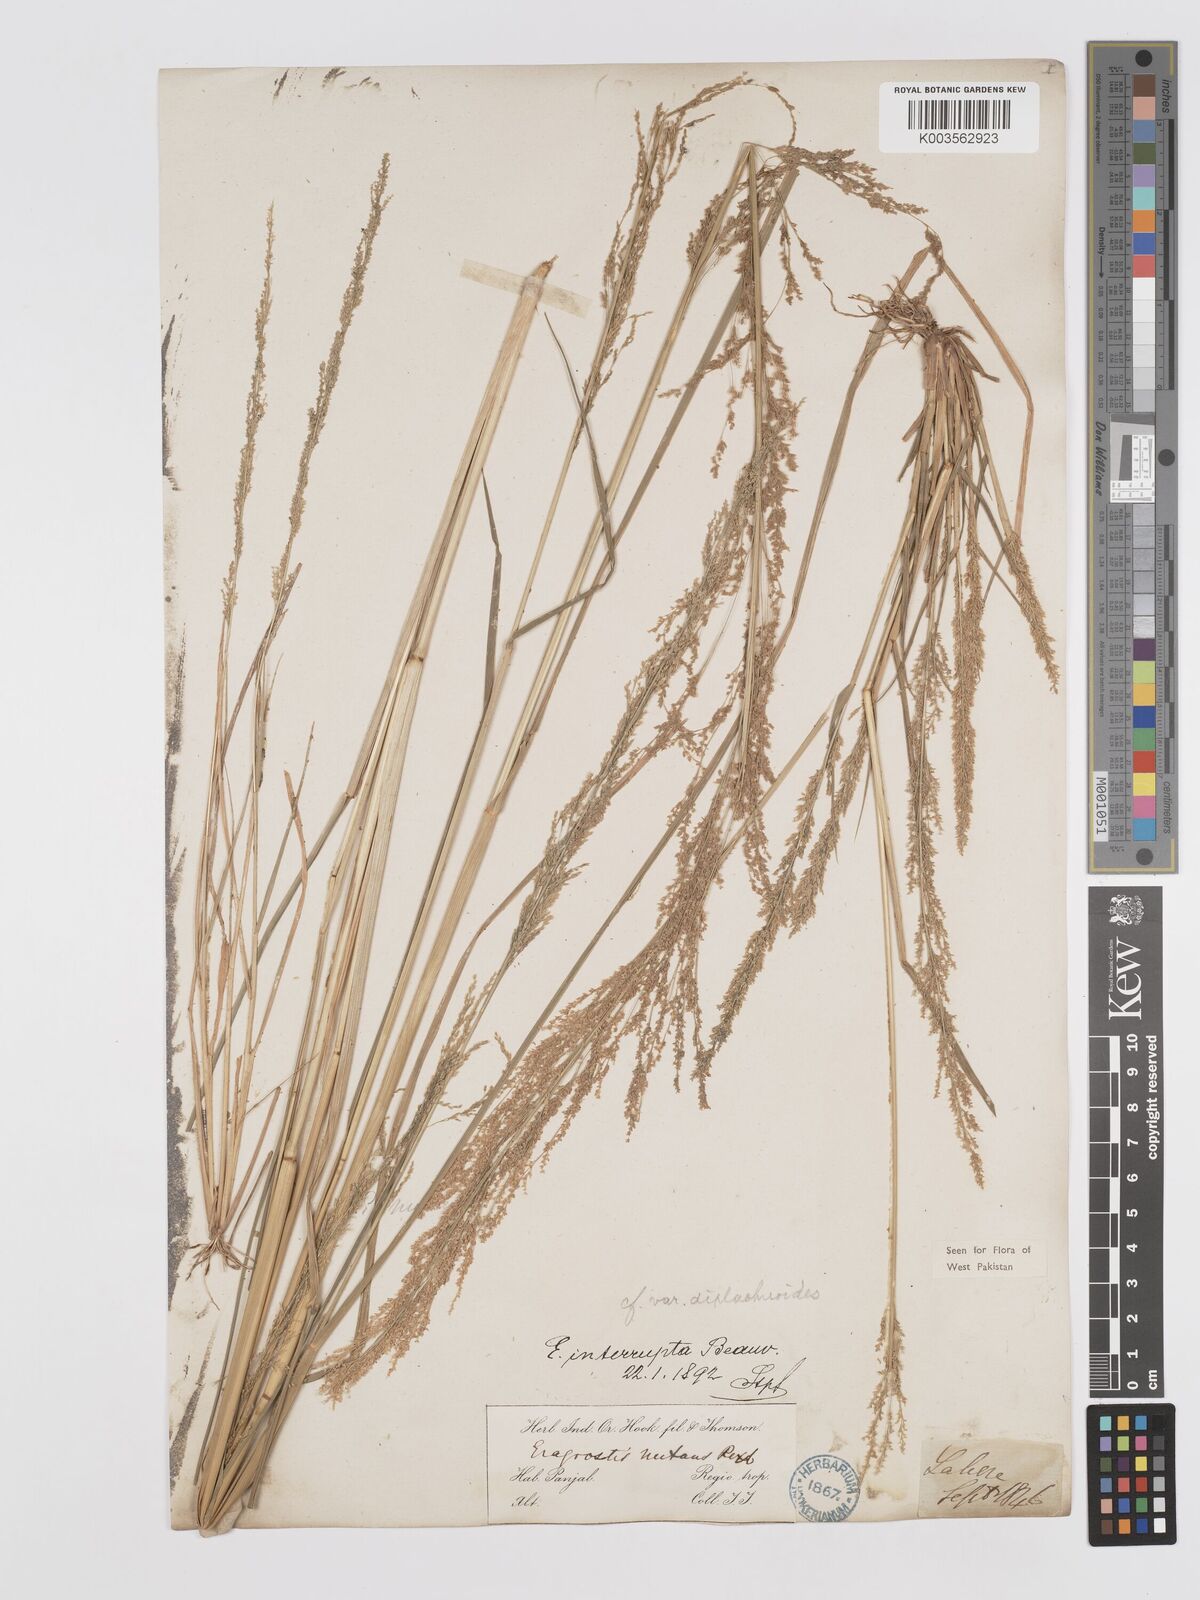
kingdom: Plantae
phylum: Tracheophyta
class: Liliopsida
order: Poales
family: Poaceae
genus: Eragrostis
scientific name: Eragrostis japonica
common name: Pond lovegrass
